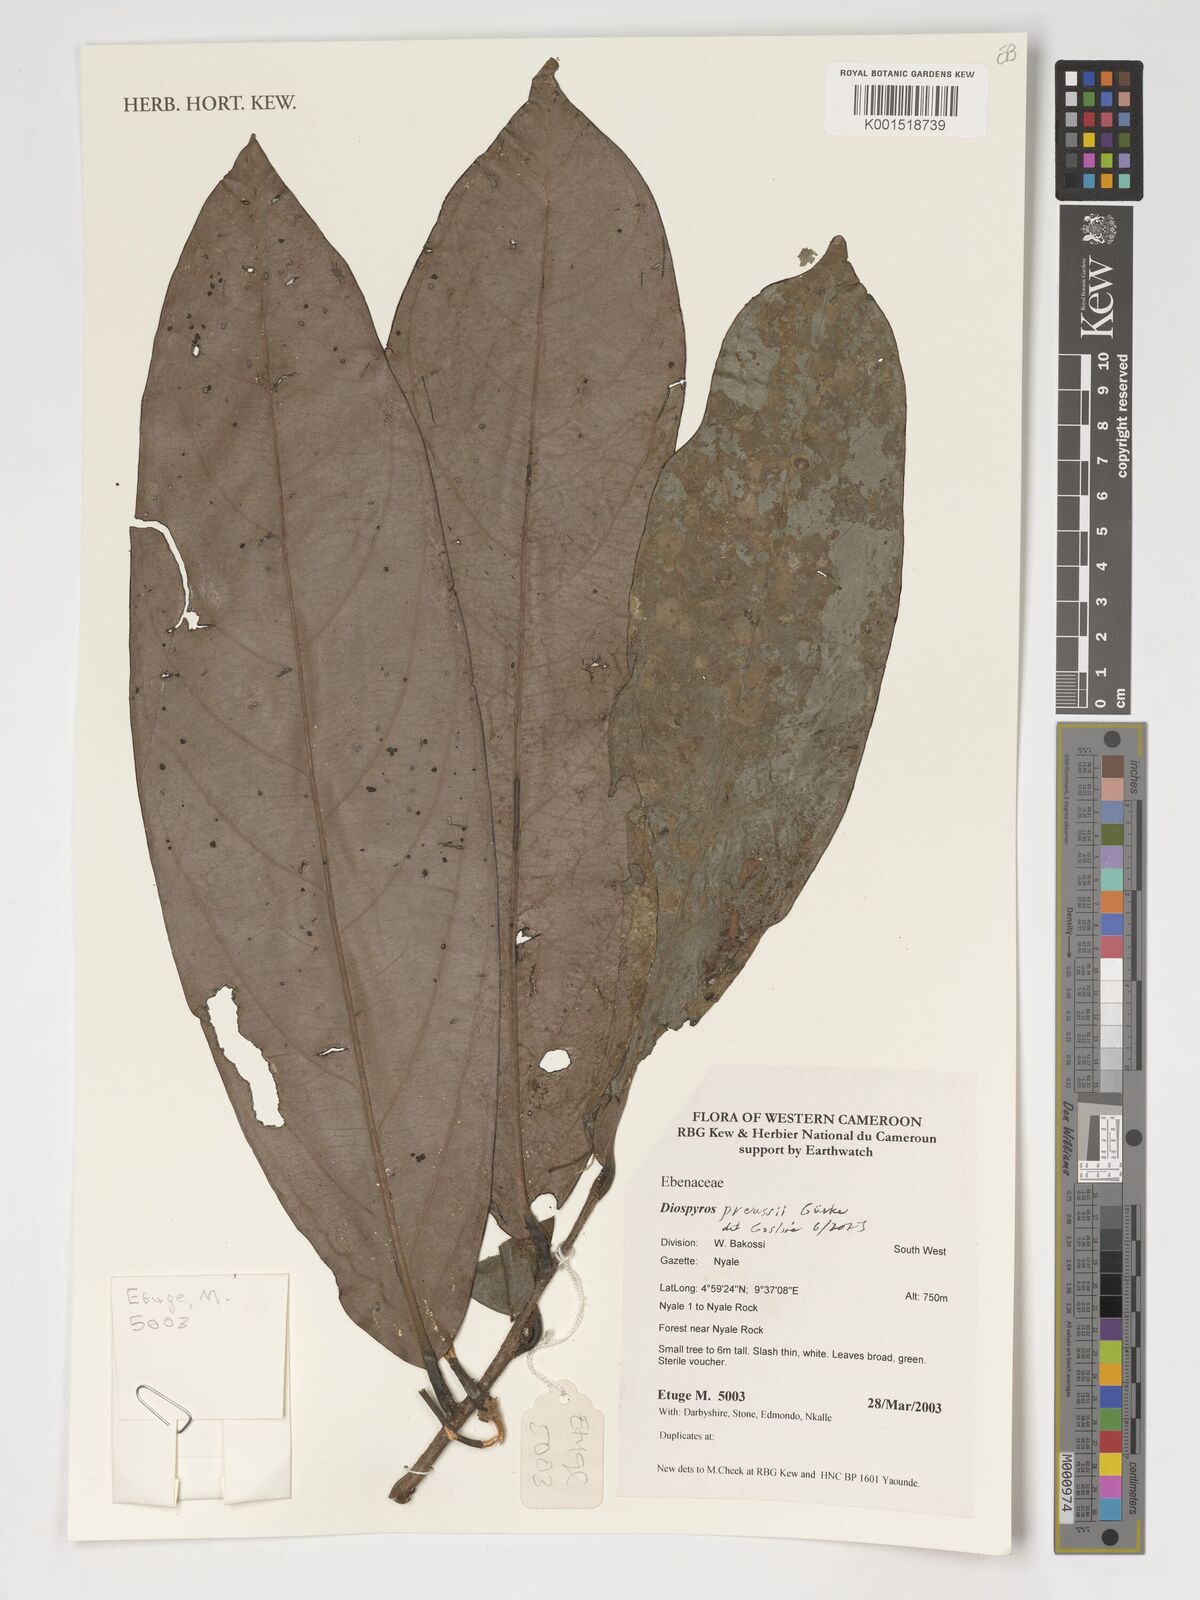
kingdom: Plantae
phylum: Tracheophyta
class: Magnoliopsida
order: Ericales
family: Ebenaceae
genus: Diospyros
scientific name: Diospyros preussii
